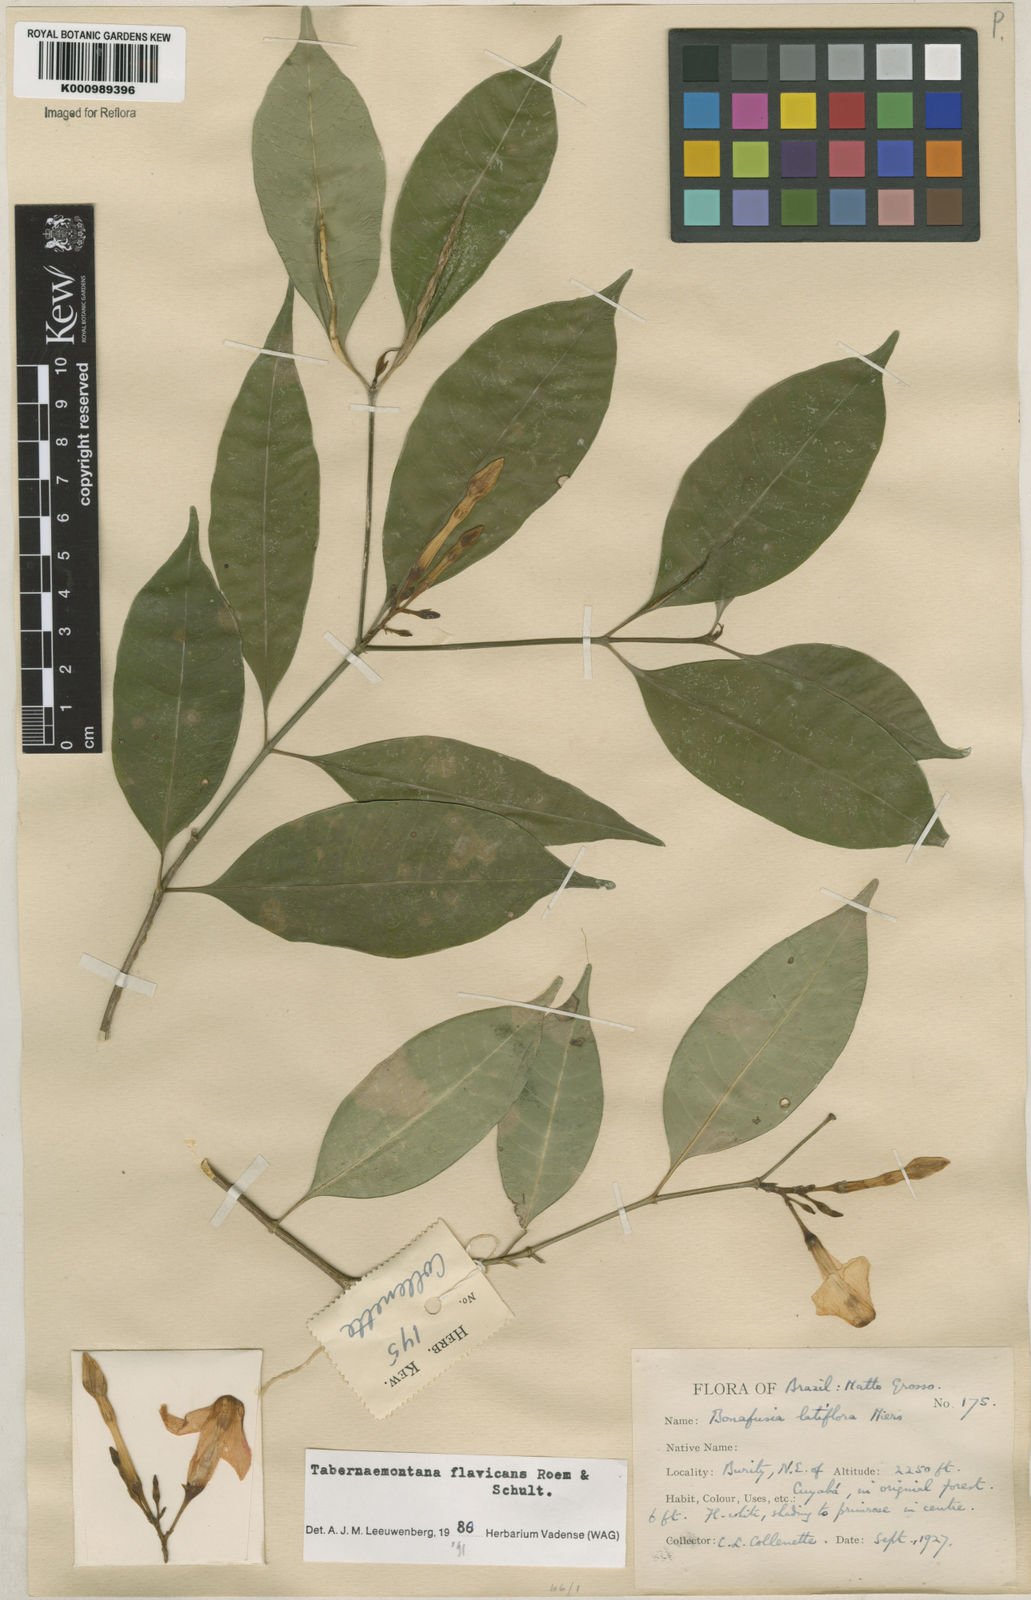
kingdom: Plantae
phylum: Tracheophyta
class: Magnoliopsida
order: Gentianales
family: Apocynaceae
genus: Tabernaemontana
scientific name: Tabernaemontana flavicans
